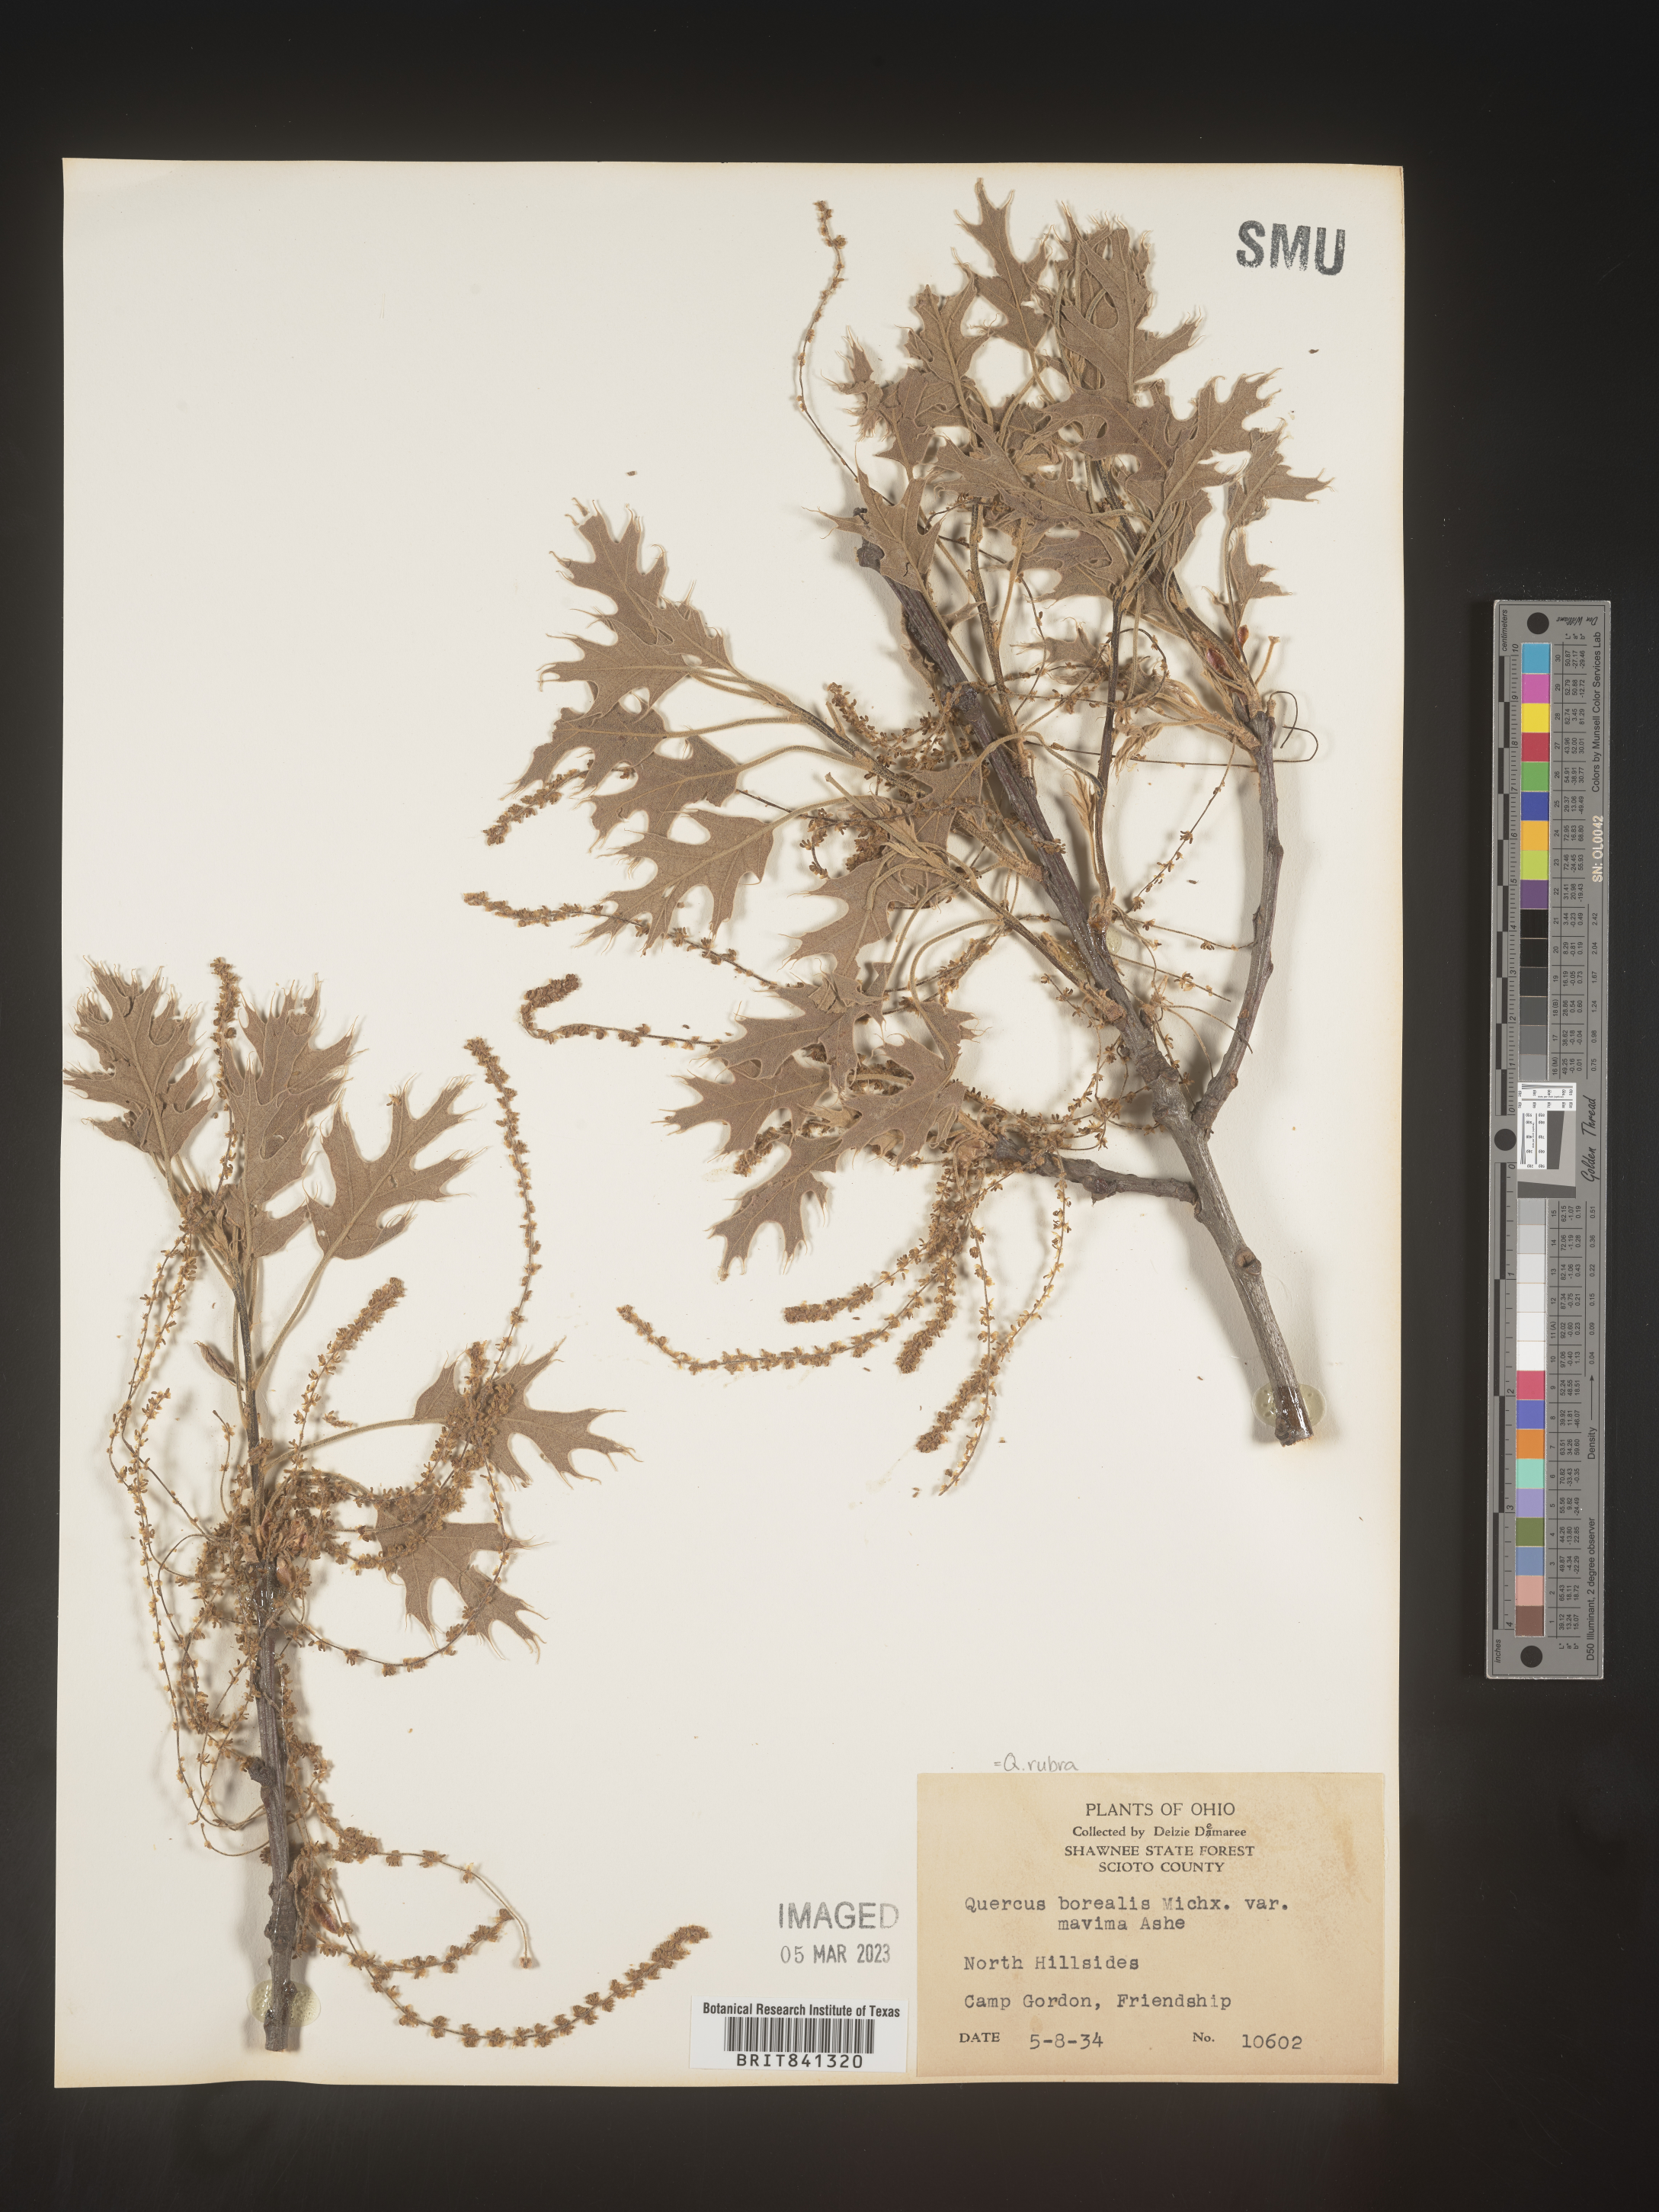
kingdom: Plantae
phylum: Tracheophyta
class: Magnoliopsida
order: Fagales
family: Fagaceae
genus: Quercus
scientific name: Quercus rubra
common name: Red oak
